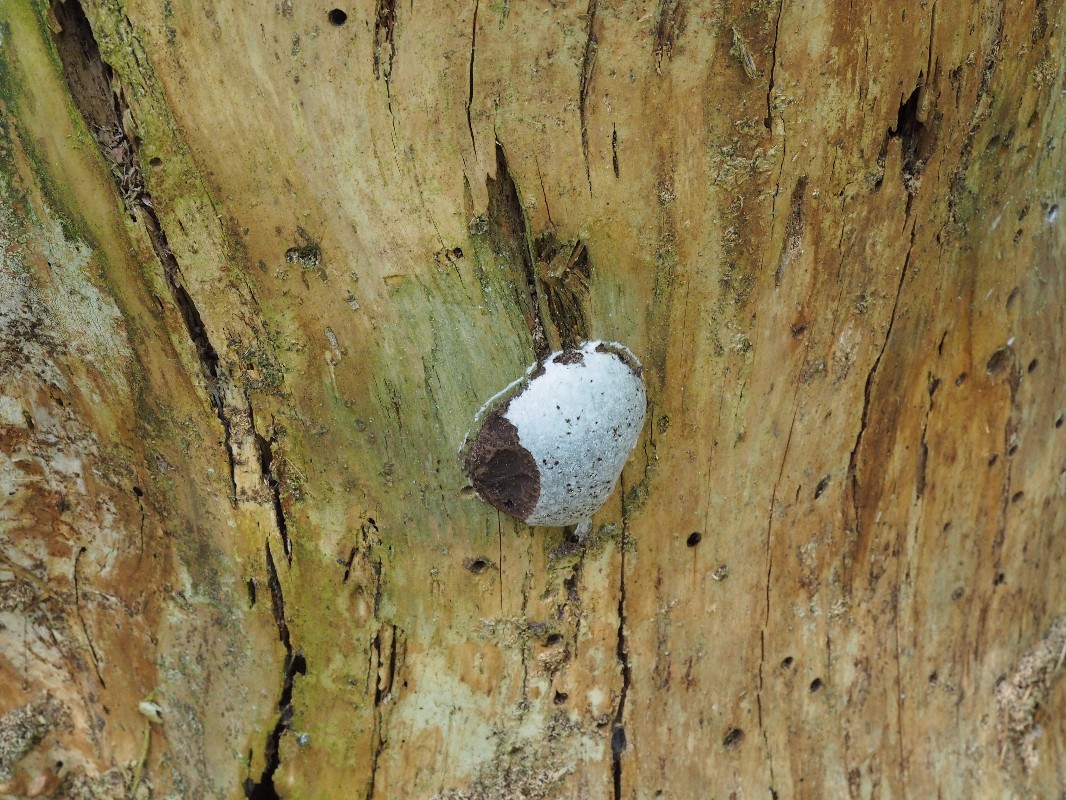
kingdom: Protozoa
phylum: Mycetozoa
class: Myxomycetes
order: Cribrariales
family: Tubiferaceae
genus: Reticularia
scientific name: Reticularia lycoperdon
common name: skinnende støvpude
